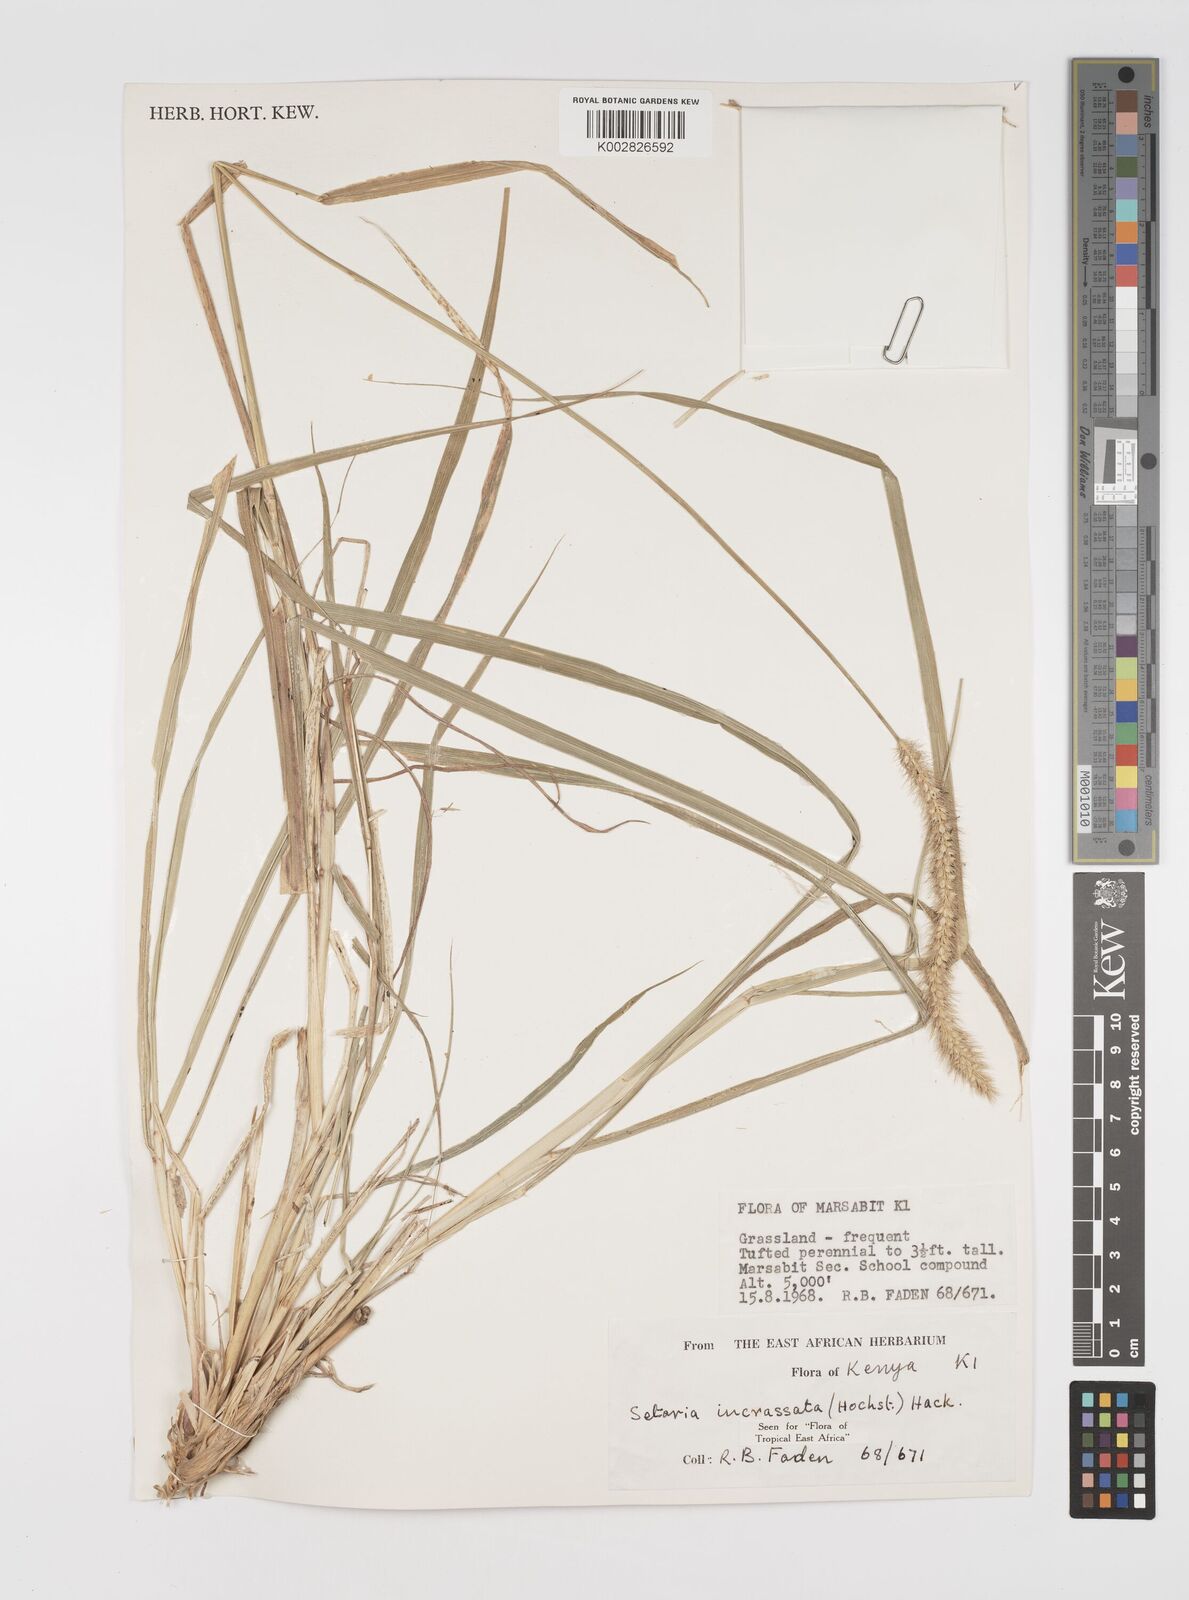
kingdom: Plantae
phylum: Tracheophyta
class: Liliopsida
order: Poales
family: Poaceae
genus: Setaria
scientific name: Setaria incrassata
